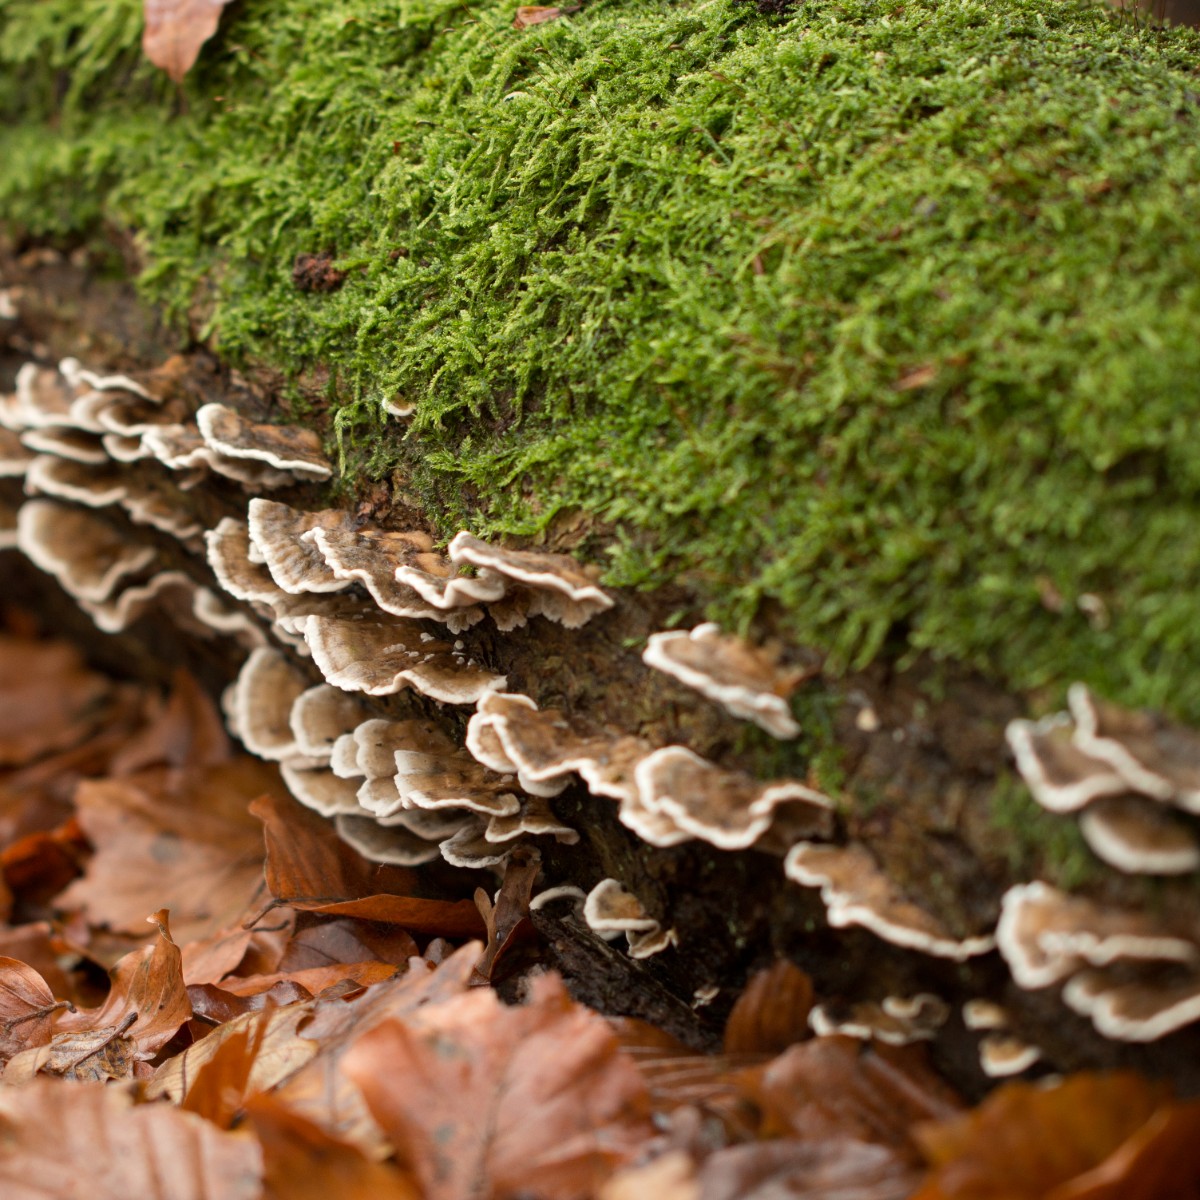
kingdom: Fungi
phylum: Basidiomycota
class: Agaricomycetes
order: Polyporales
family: Phanerochaetaceae
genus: Bjerkandera
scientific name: Bjerkandera adusta
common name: sveden sodporesvamp
